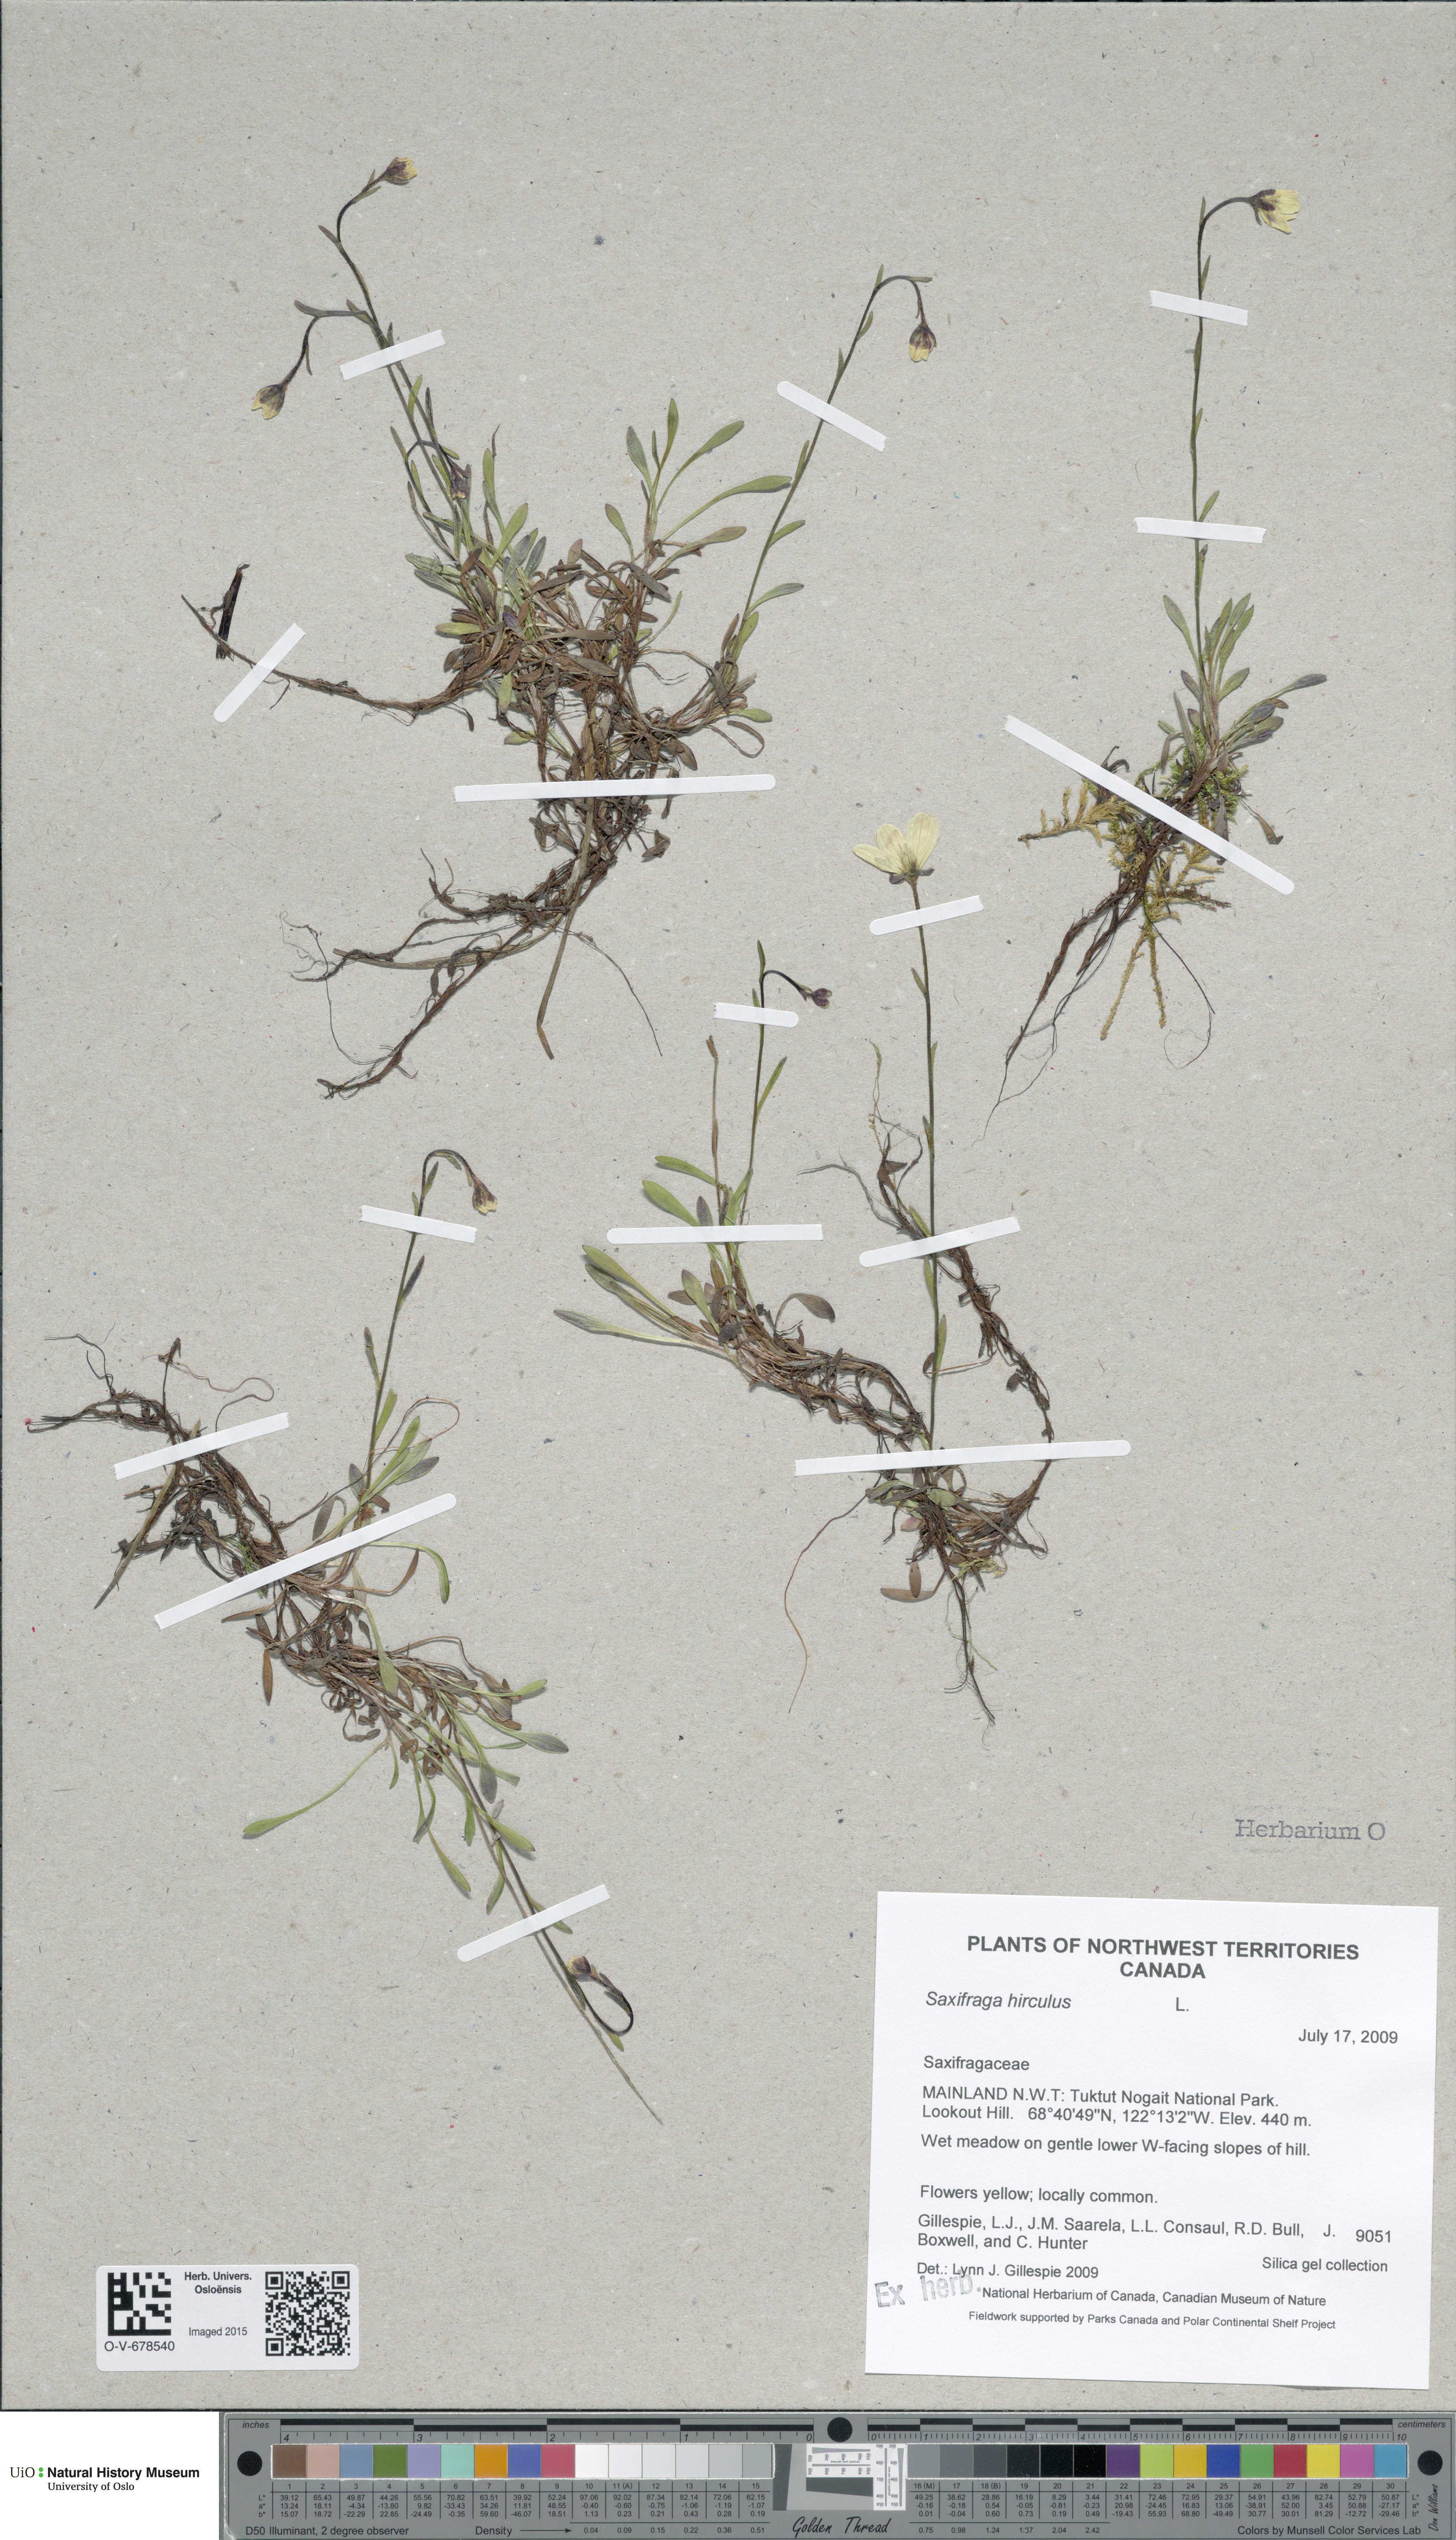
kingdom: Plantae
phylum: Tracheophyta
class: Magnoliopsida
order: Saxifragales
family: Saxifragaceae
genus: Saxifraga
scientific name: Saxifraga hirculus
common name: Yellow marsh saxifrage
